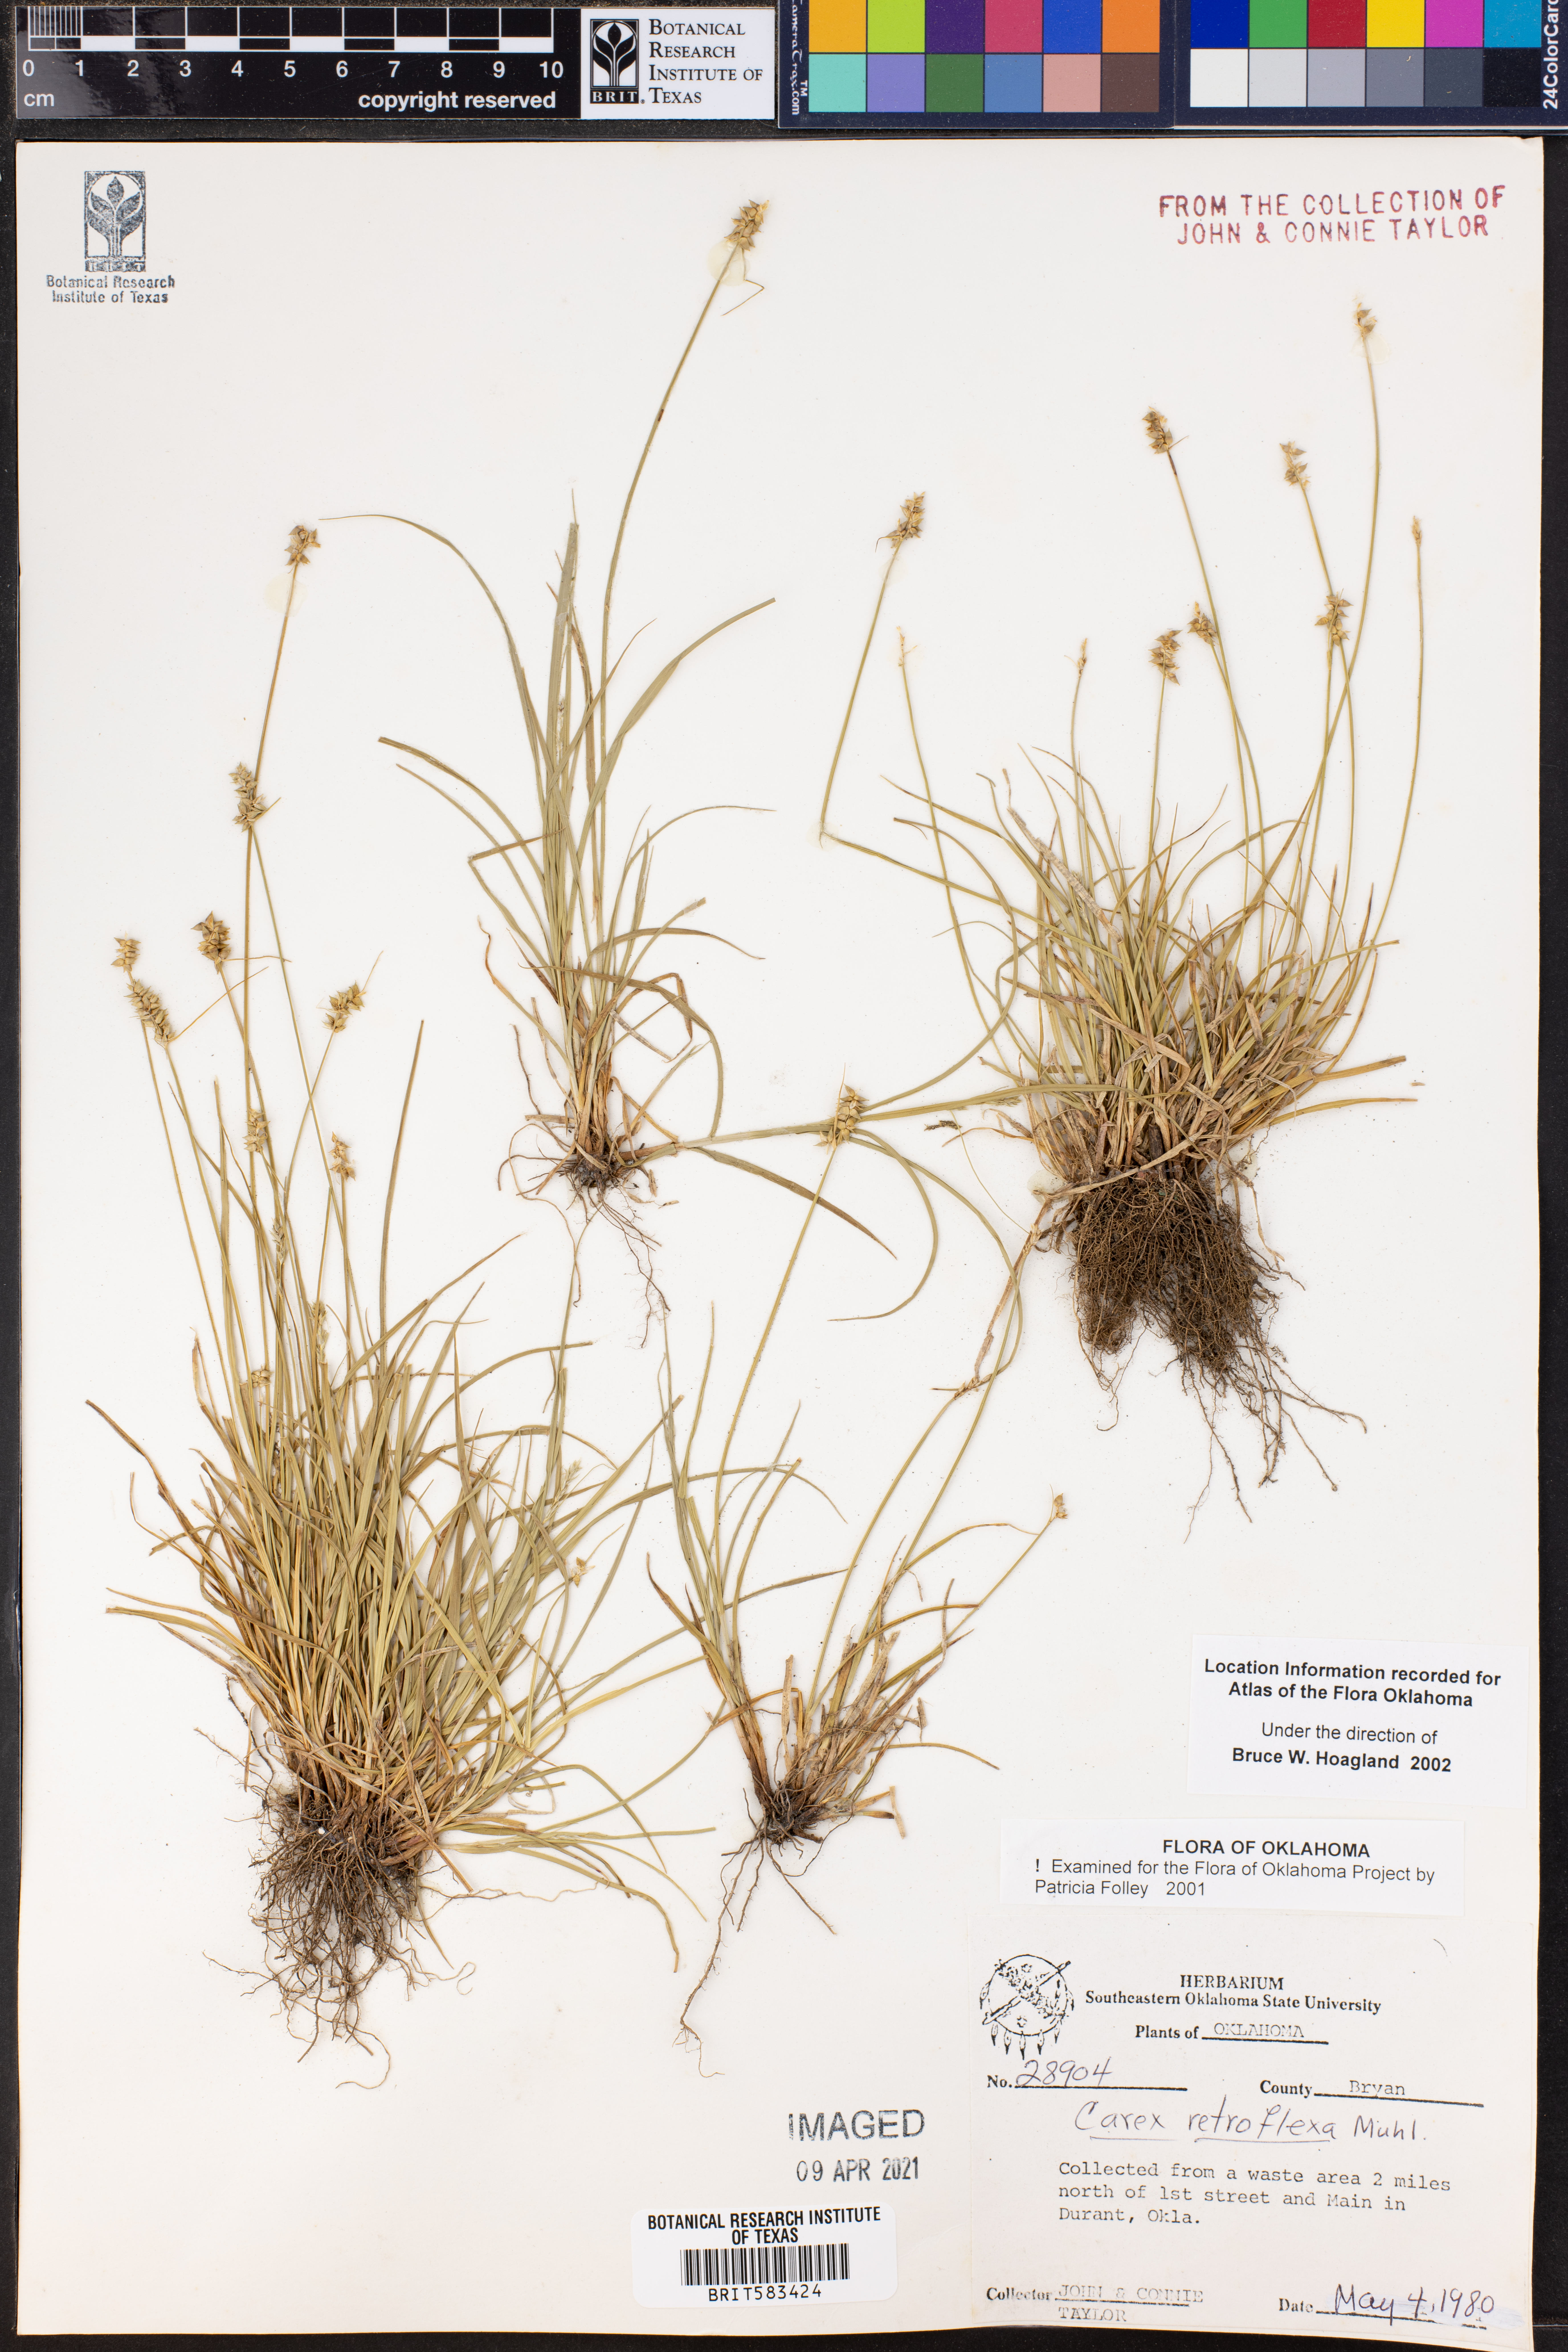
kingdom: Plantae
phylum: Tracheophyta
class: Liliopsida
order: Poales
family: Cyperaceae
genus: Carex
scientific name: Carex retroflexa
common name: Reflexed sedge
